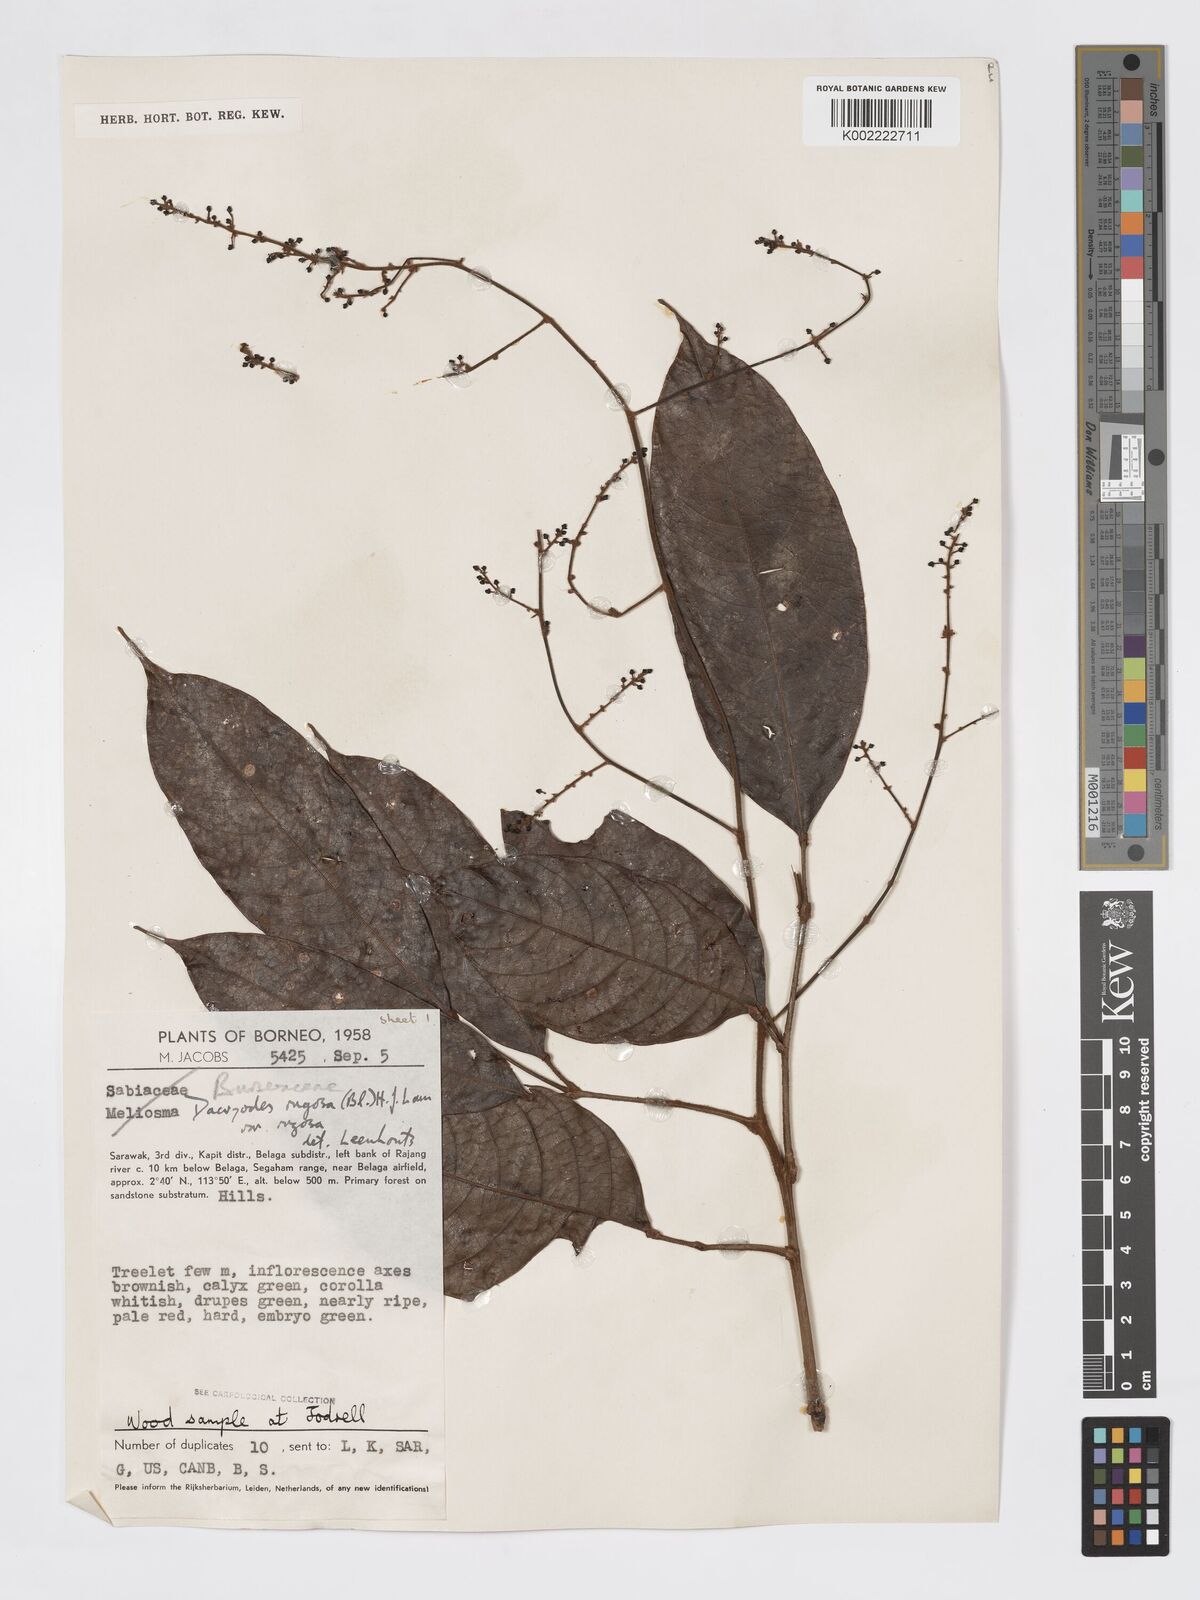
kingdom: Plantae
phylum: Tracheophyta
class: Magnoliopsida
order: Sapindales
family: Burseraceae
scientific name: Burseraceae
